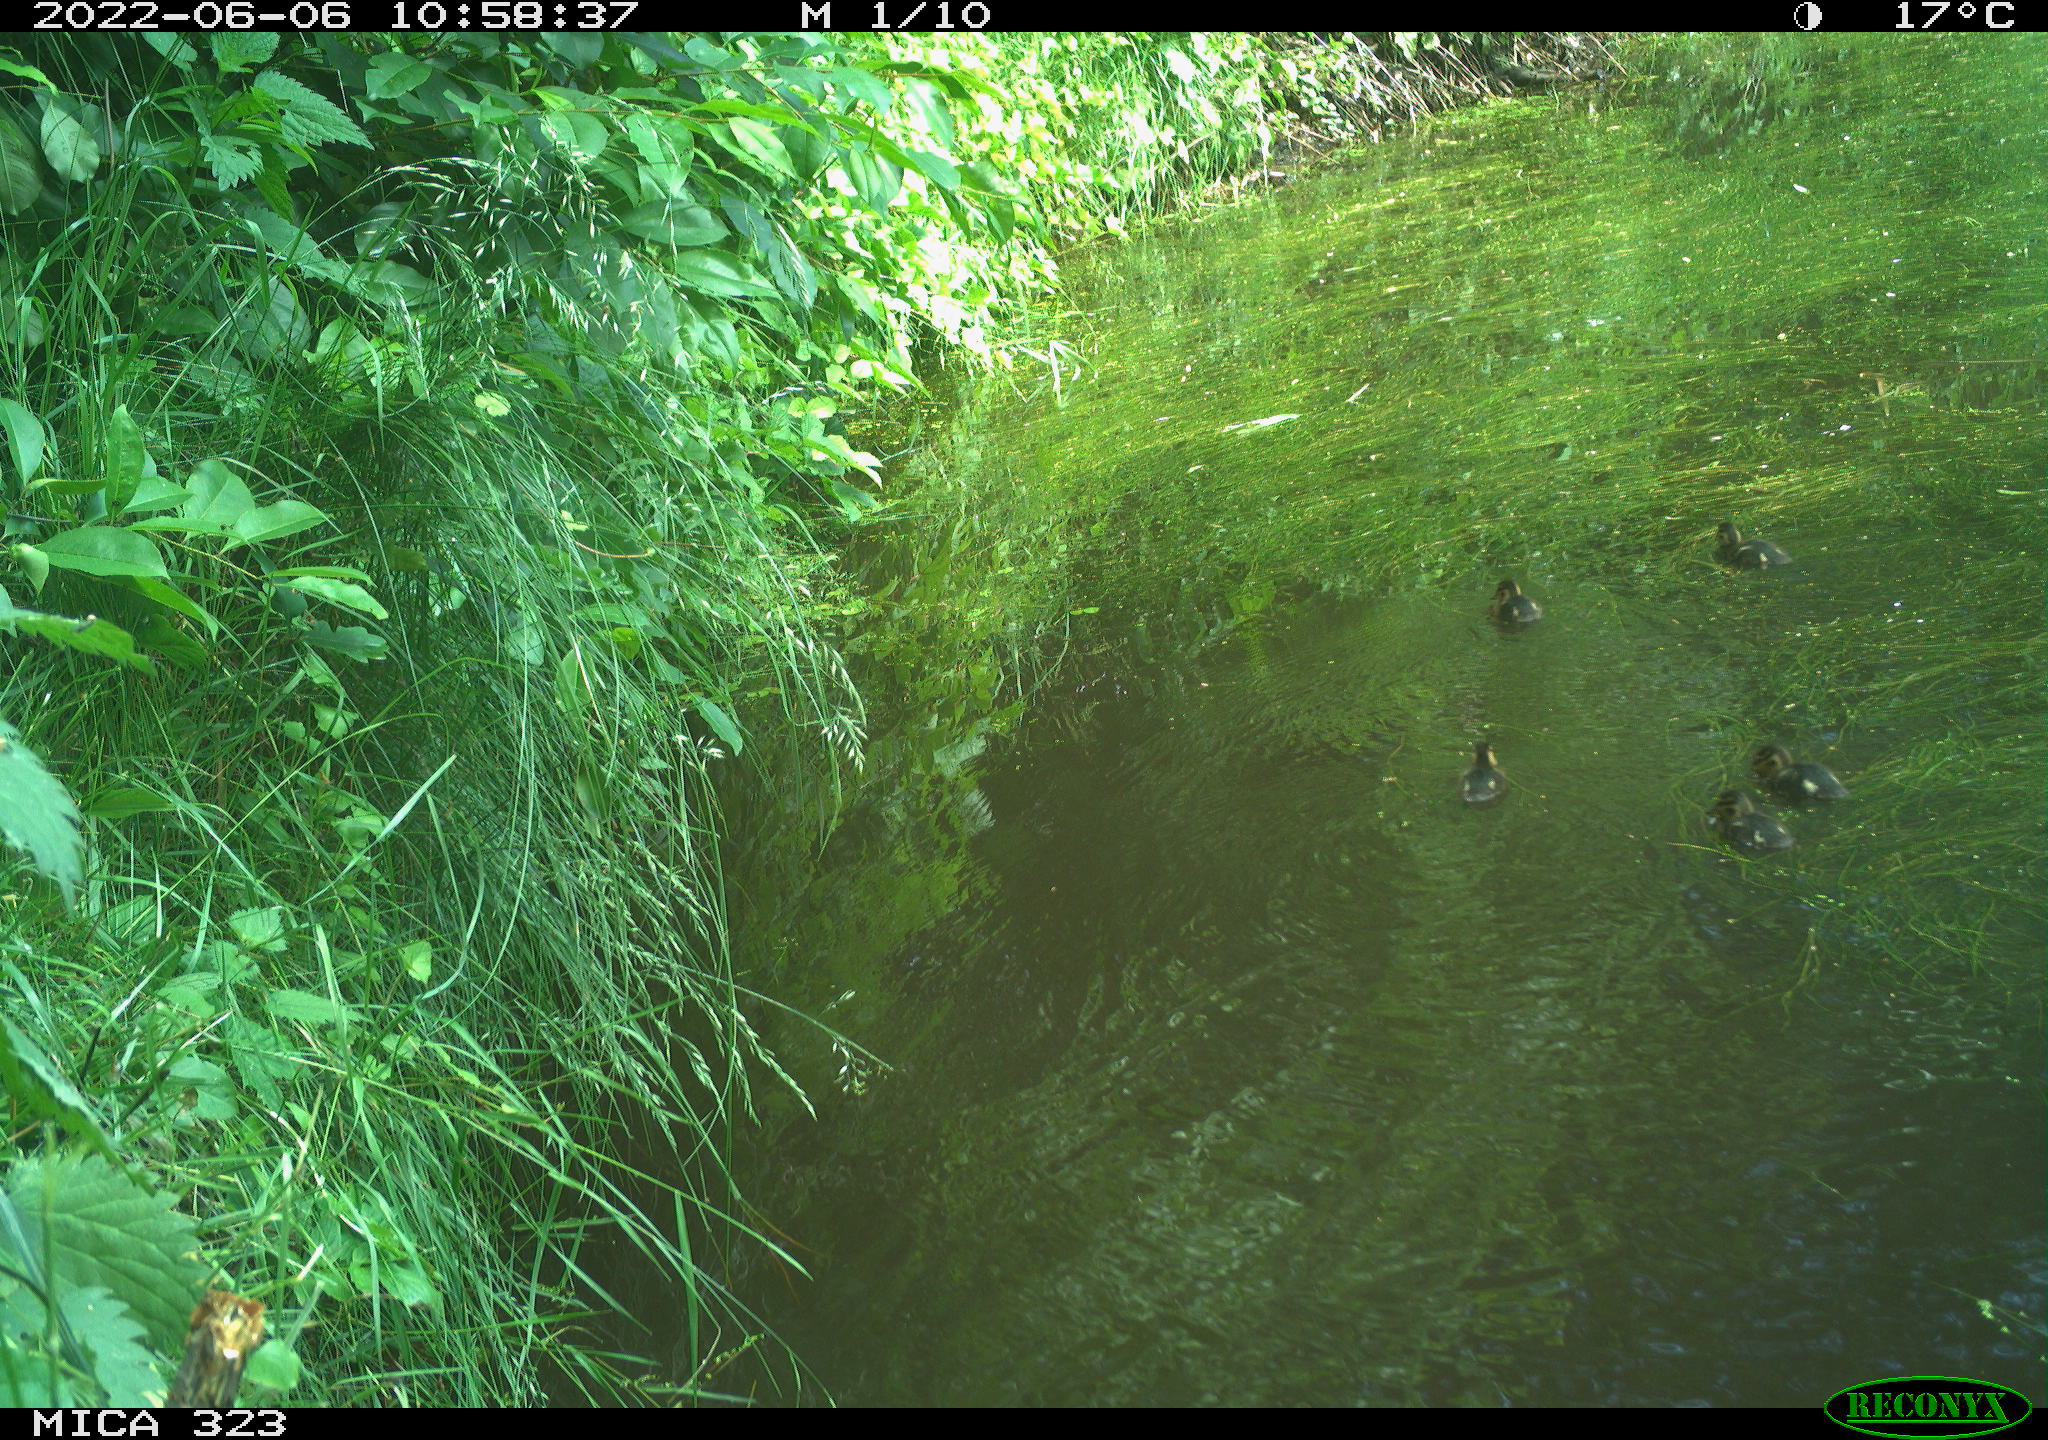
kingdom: Animalia
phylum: Chordata
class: Aves
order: Anseriformes
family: Anatidae
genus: Anas
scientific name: Anas platyrhynchos
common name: Mallard
